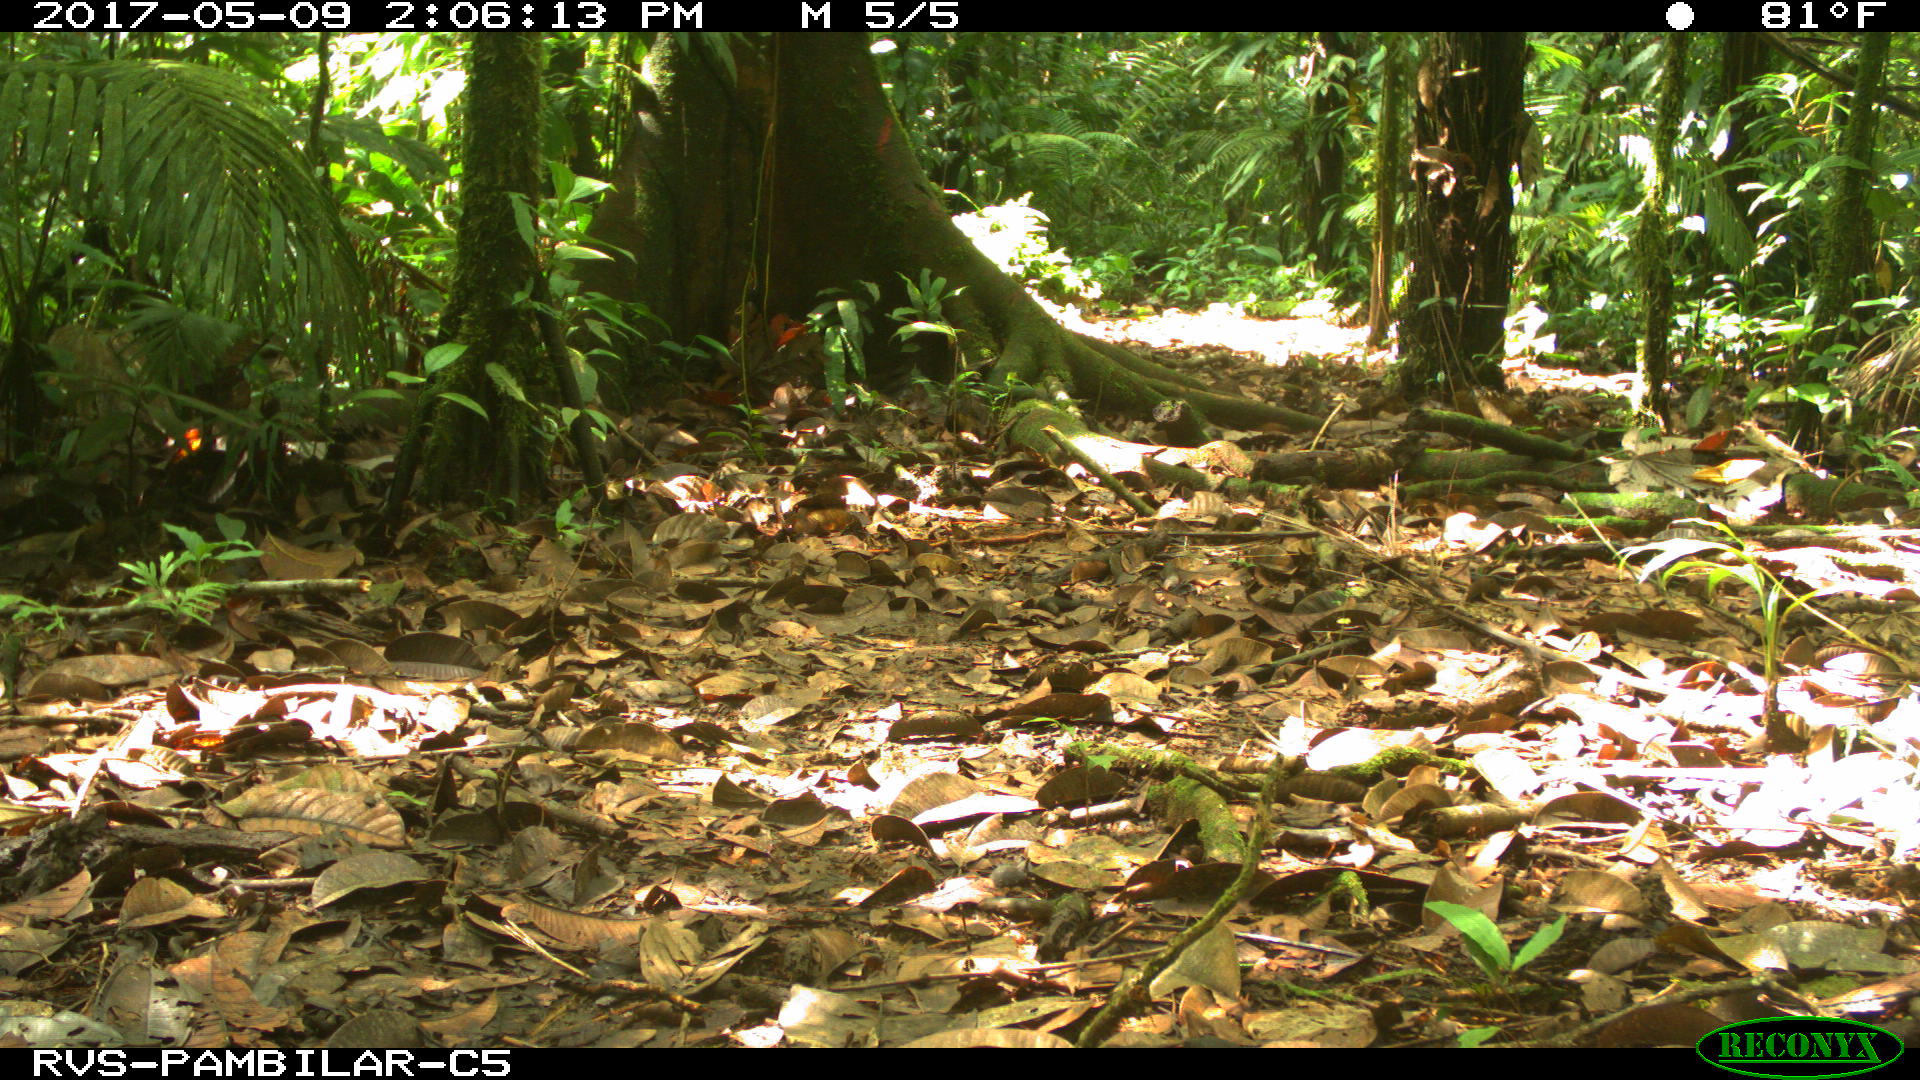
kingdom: Animalia
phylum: Chordata
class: Mammalia
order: Artiodactyla
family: Tayassuidae
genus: Tayassu
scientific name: Tayassu pecari
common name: White-lipped peccary
